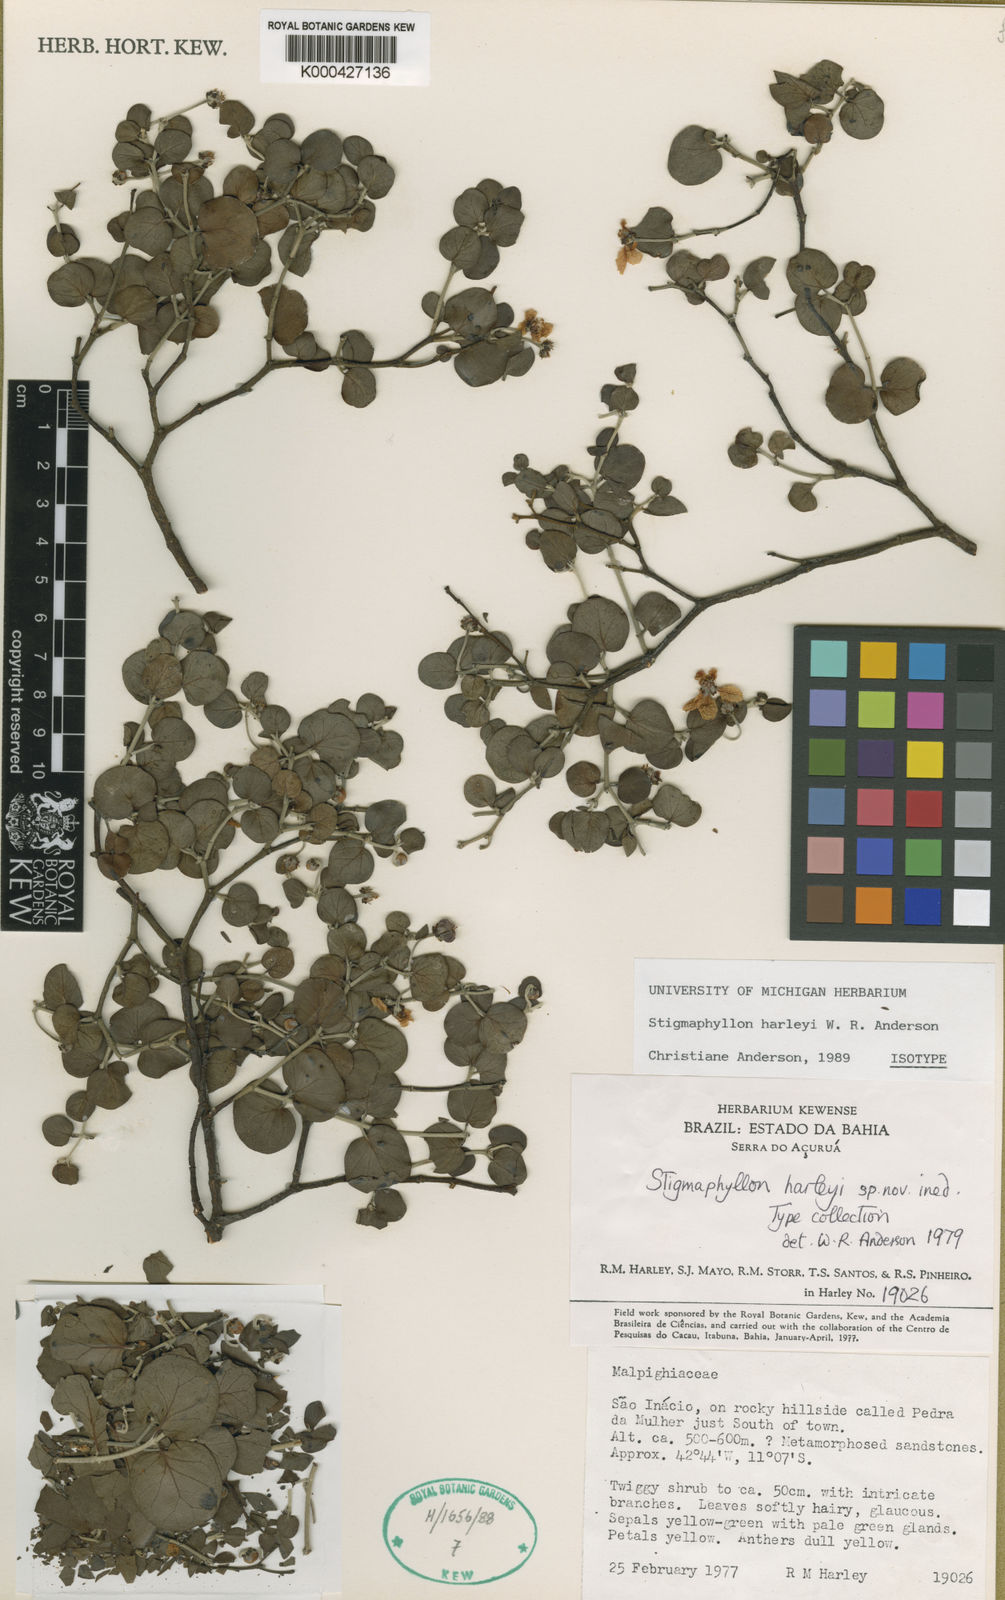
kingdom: Plantae
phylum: Tracheophyta
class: Magnoliopsida
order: Malpighiales
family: Malpighiaceae
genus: Stigmaphyllon
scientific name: Stigmaphyllon harleyi
